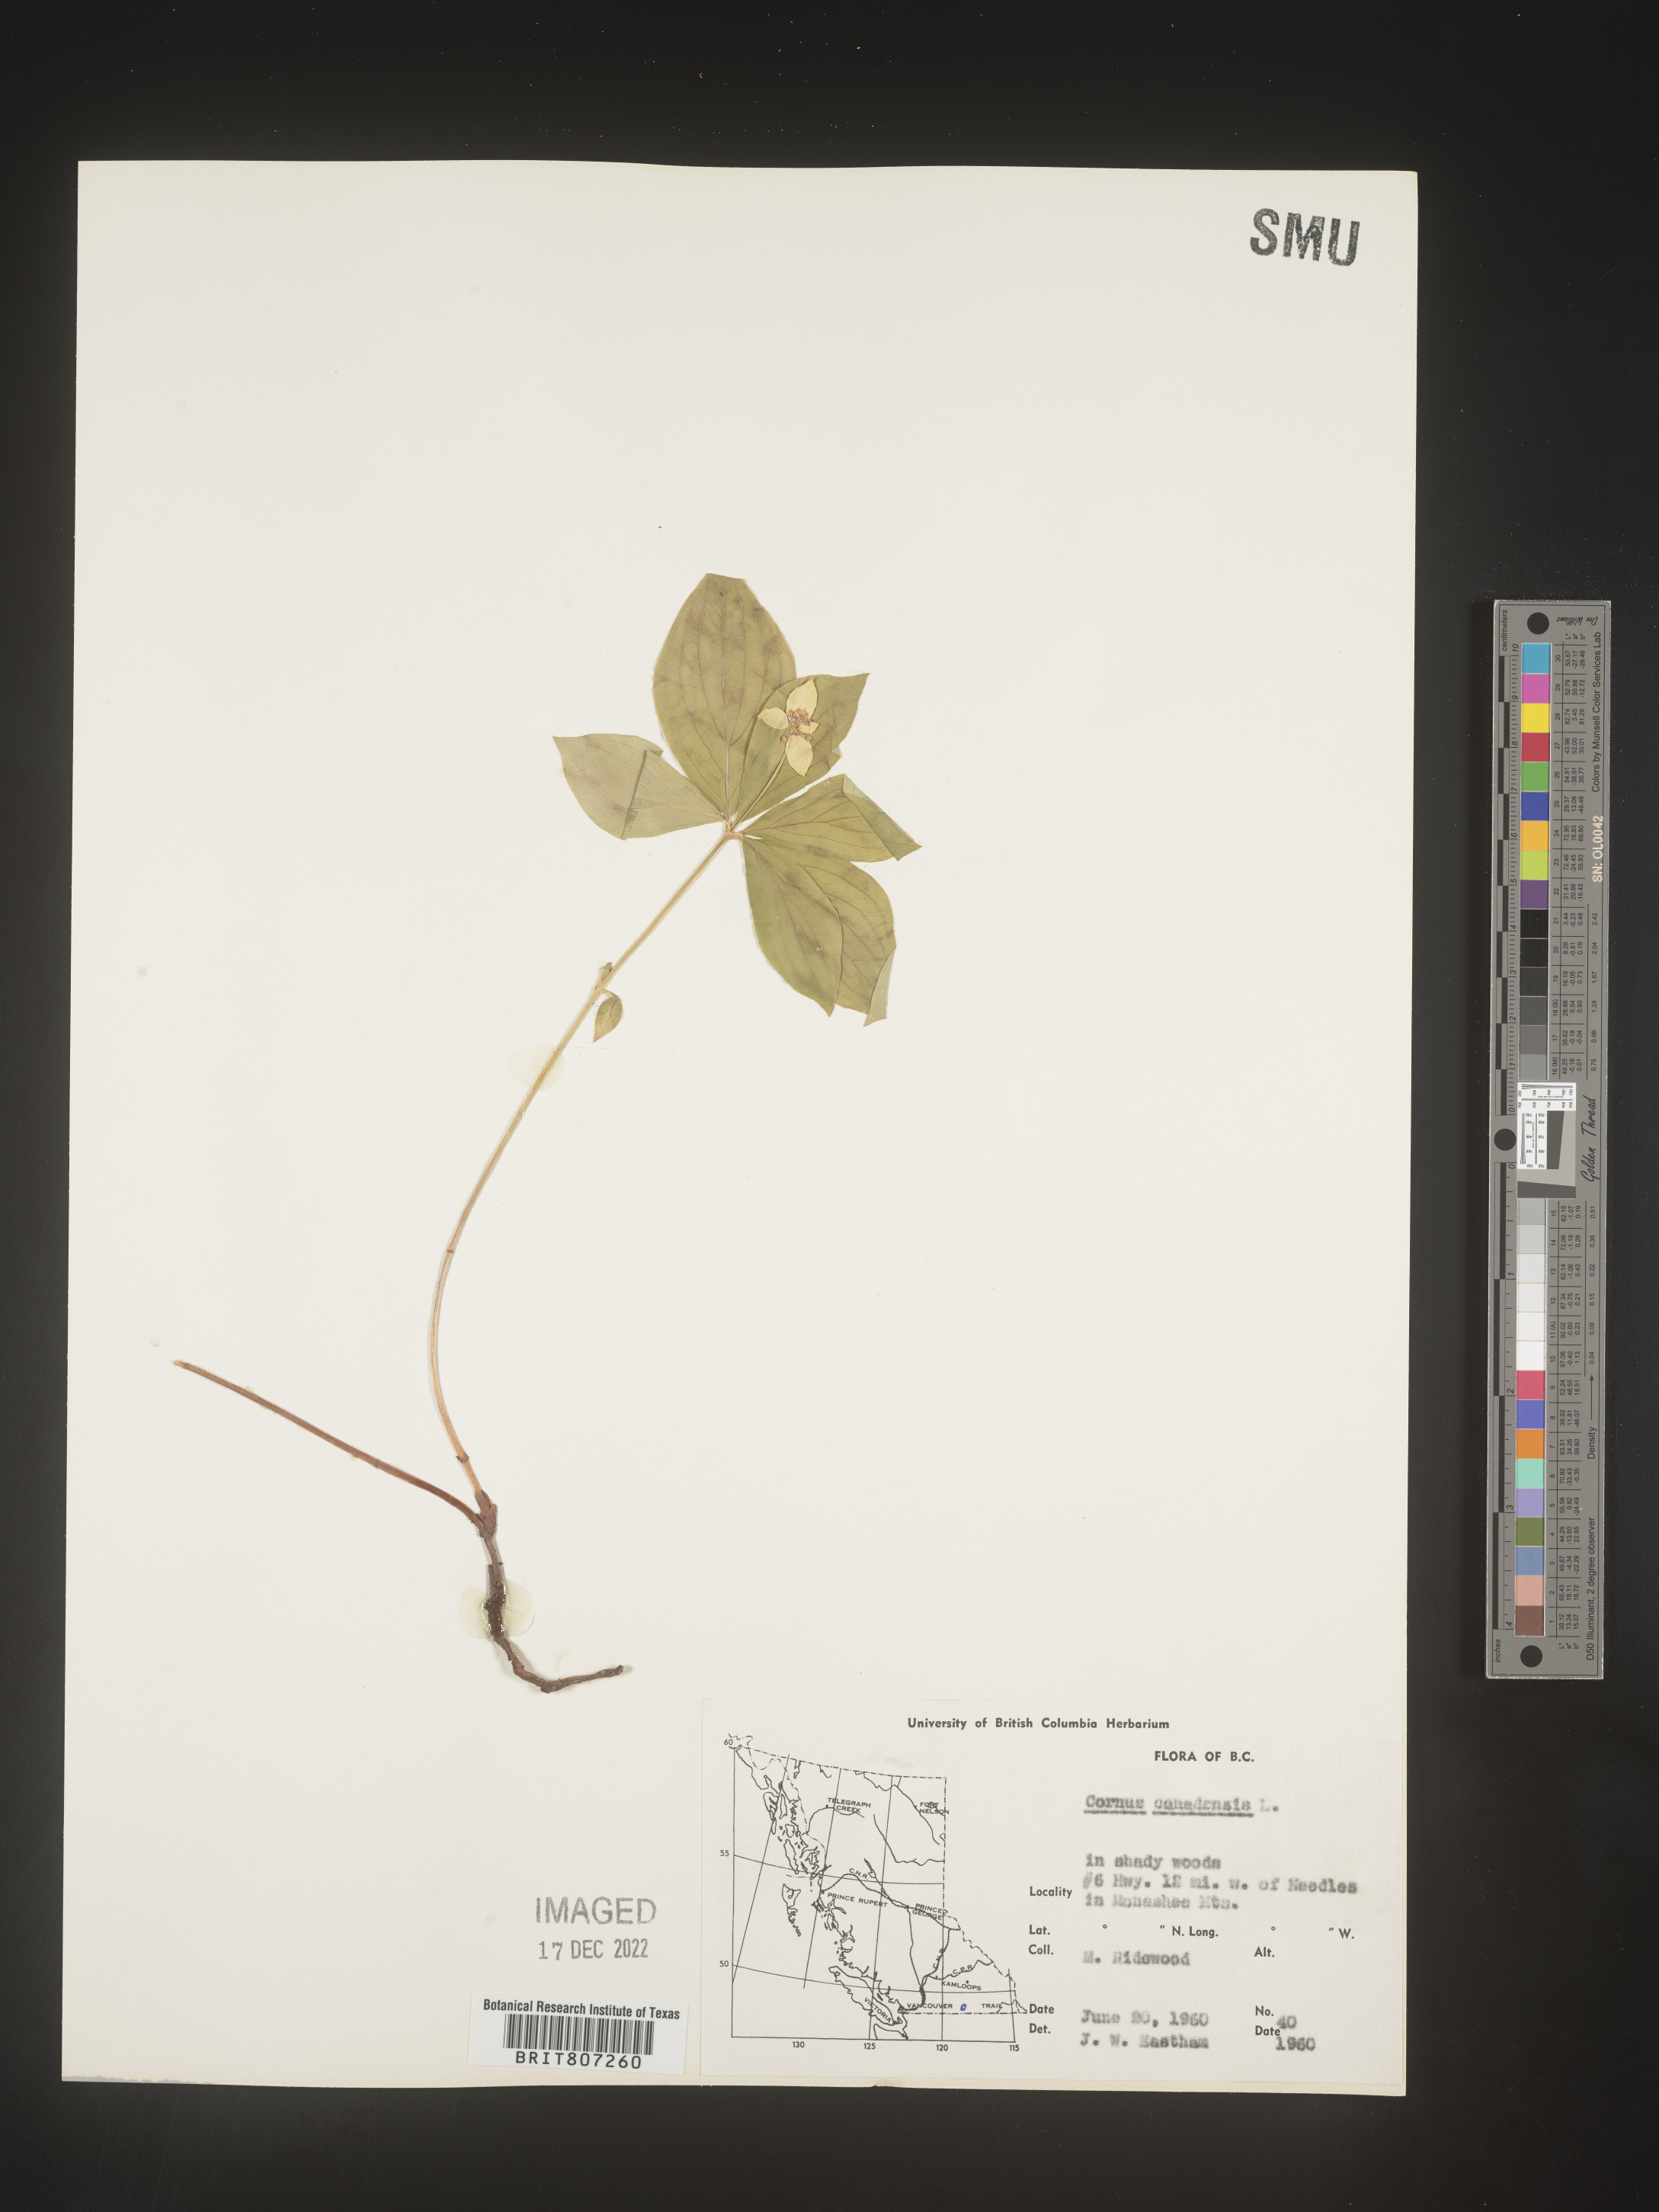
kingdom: Plantae
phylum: Tracheophyta
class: Magnoliopsida
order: Cornales
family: Cornaceae
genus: Cornus
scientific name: Cornus canadensis
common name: Creeping dogwood
